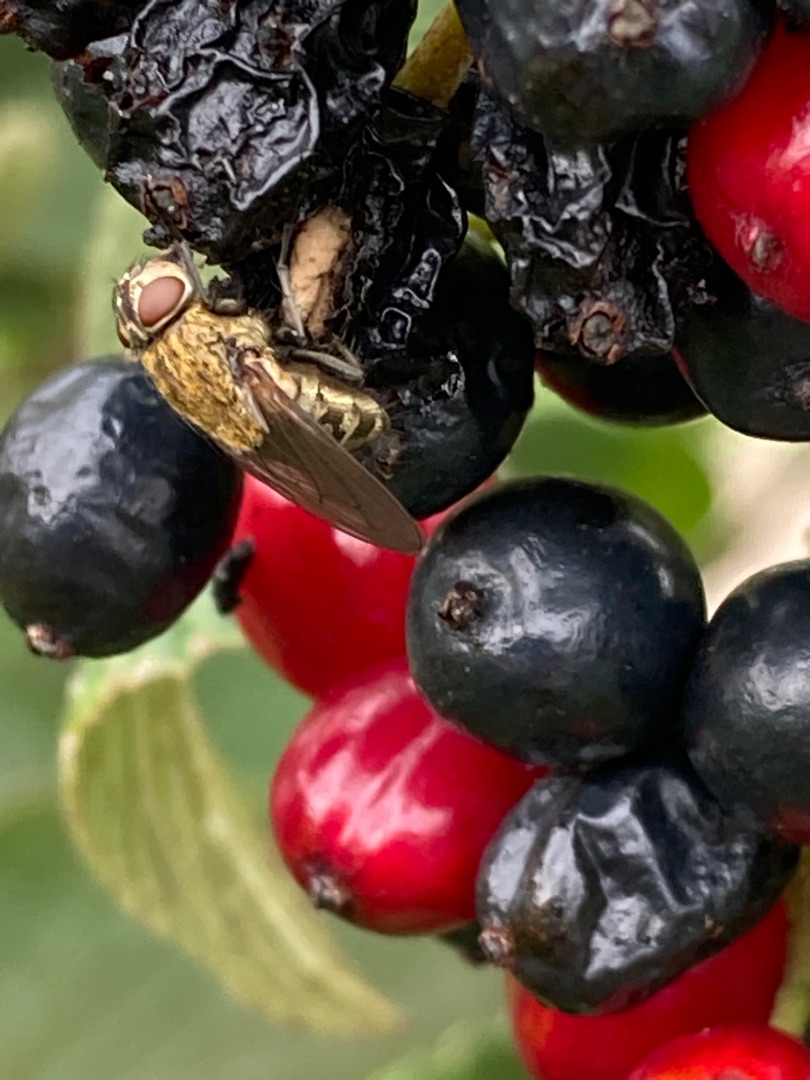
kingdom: Animalia
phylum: Arthropoda
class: Insecta
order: Diptera
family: Polleniidae
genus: Pollenia
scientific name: Pollenia
